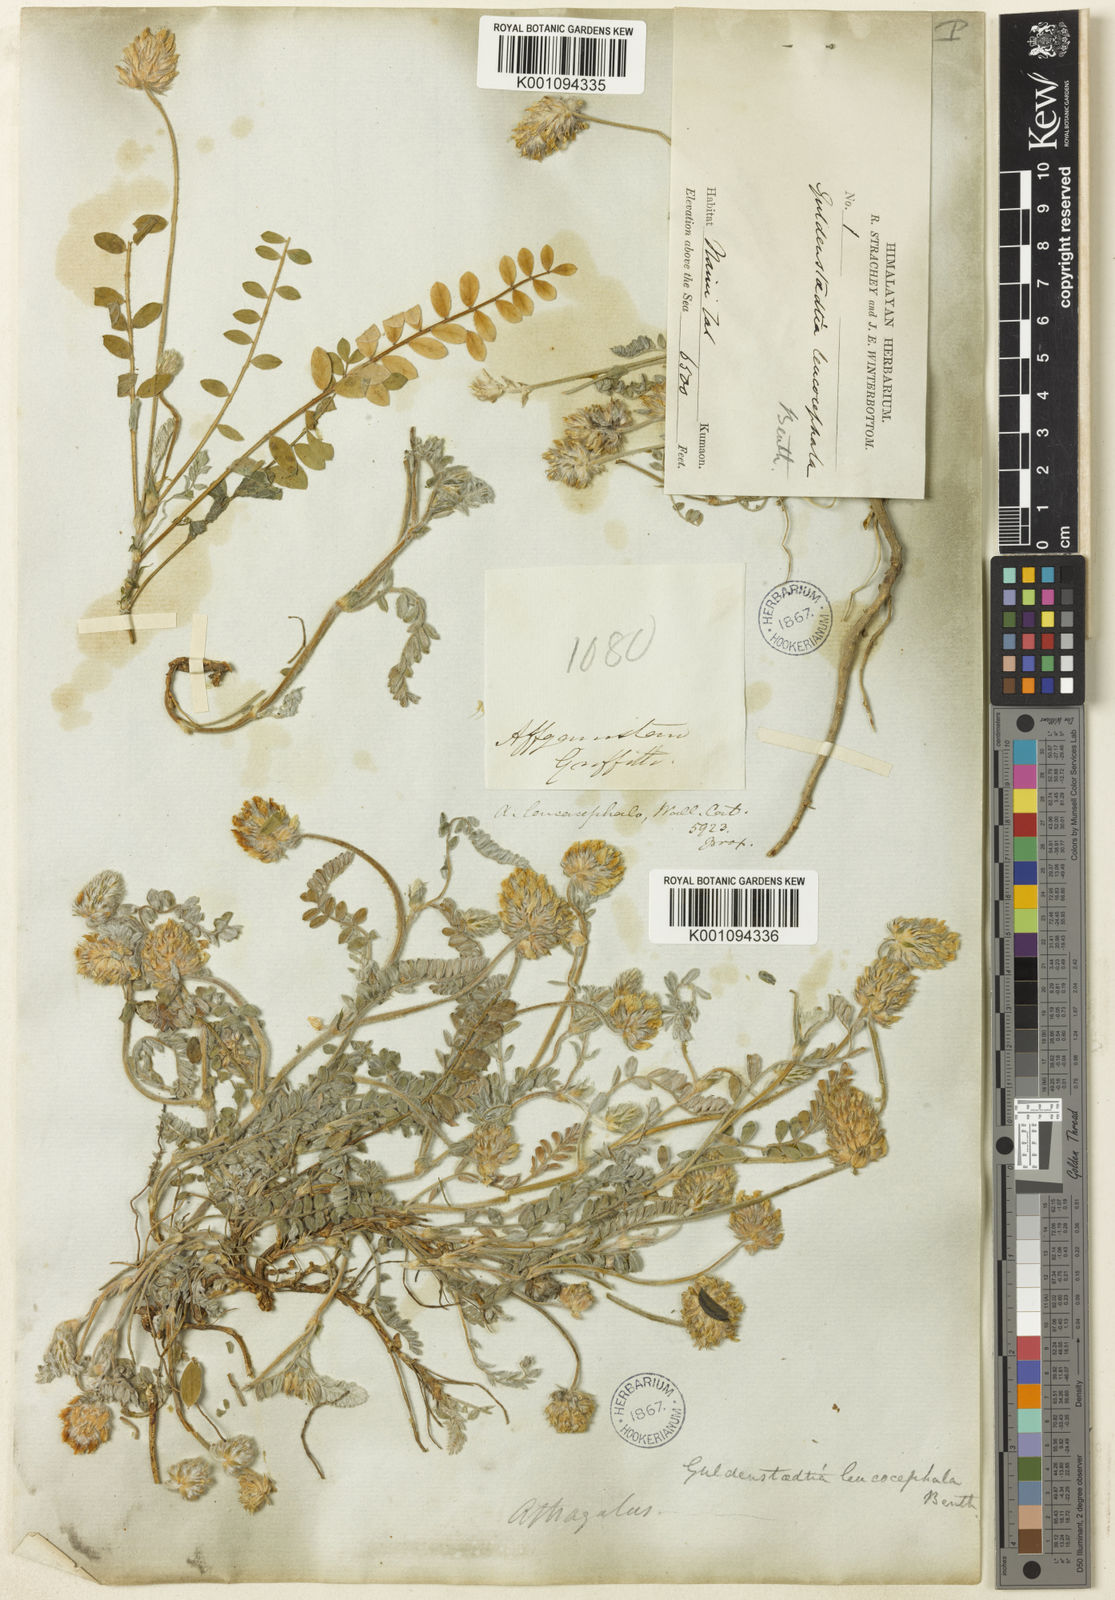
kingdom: Plantae
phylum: Tracheophyta
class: Magnoliopsida
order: Fabales
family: Fabaceae
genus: Astragalus
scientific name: Astragalus
